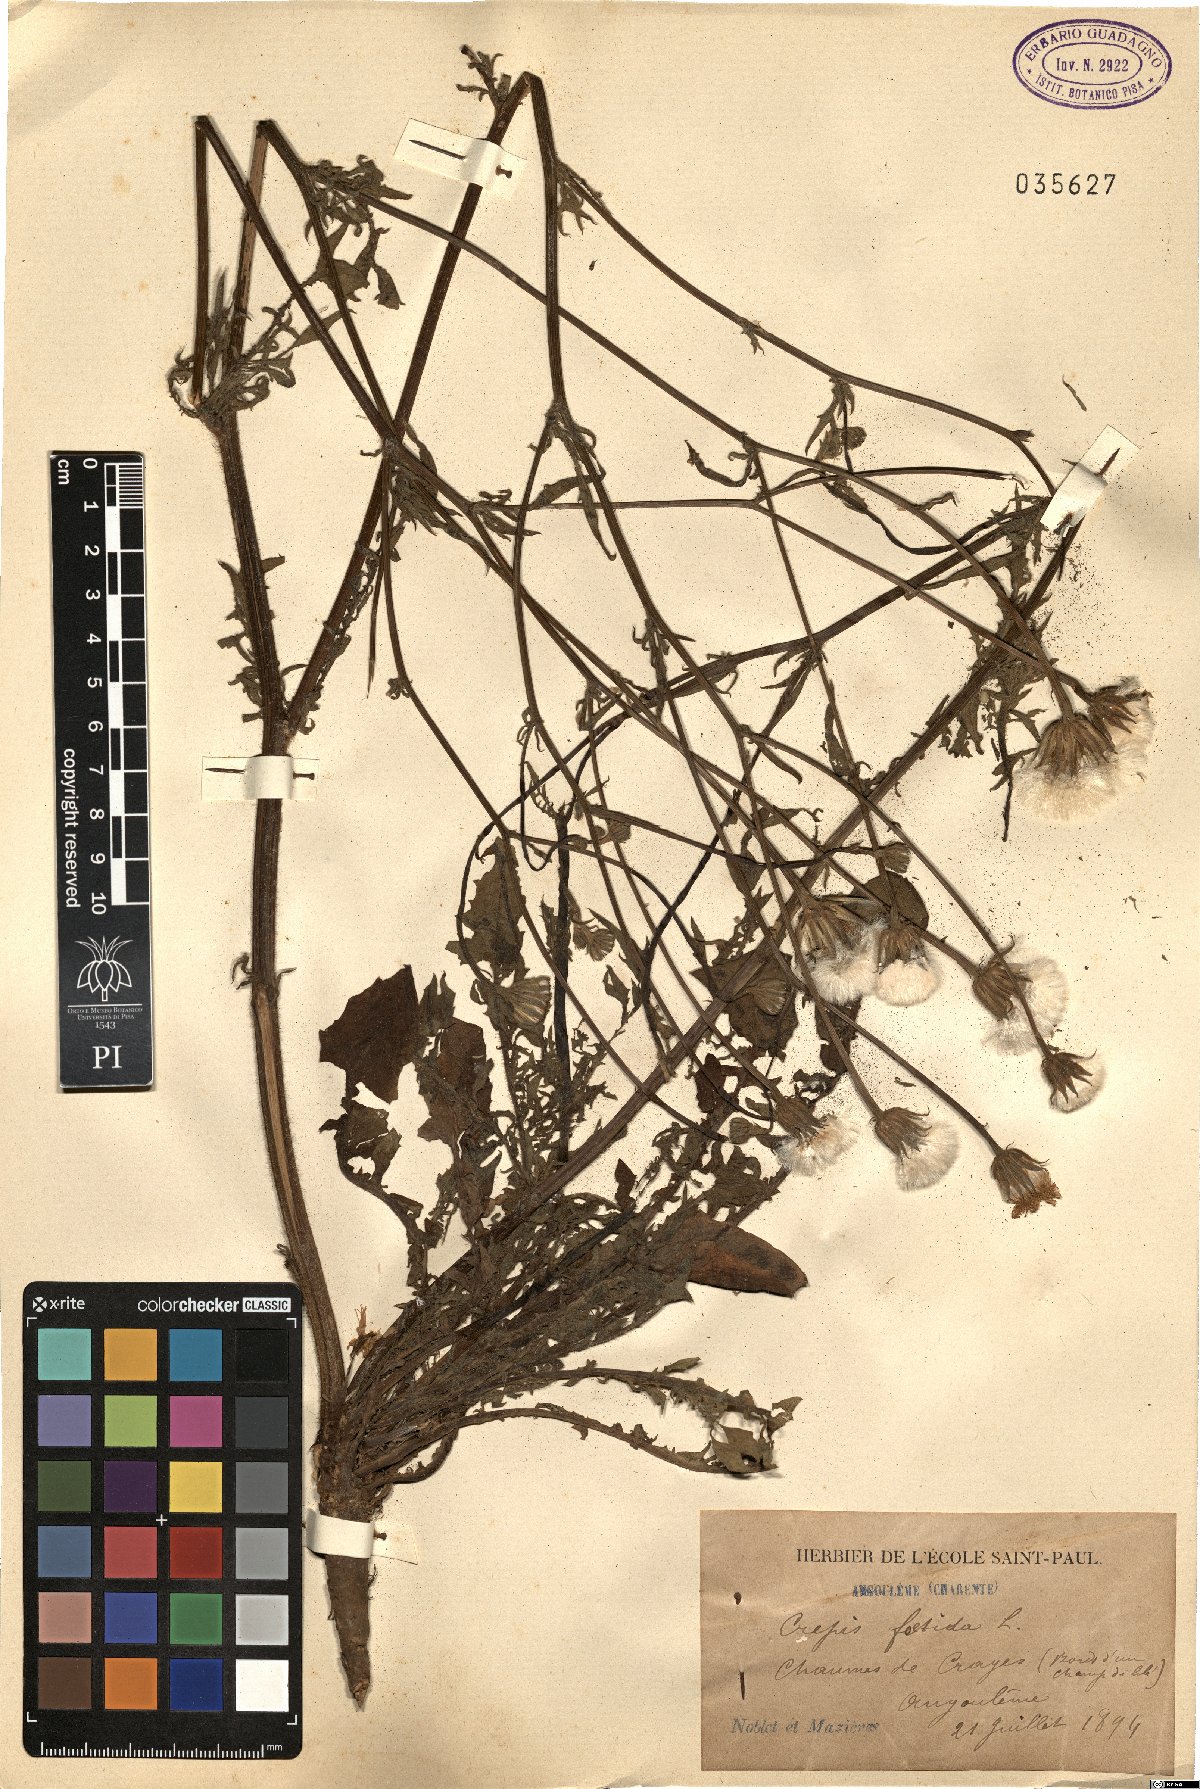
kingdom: Plantae
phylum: Tracheophyta
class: Magnoliopsida
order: Asterales
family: Asteraceae
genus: Crepis
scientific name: Crepis foetida
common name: Stinking hawk's-beard
